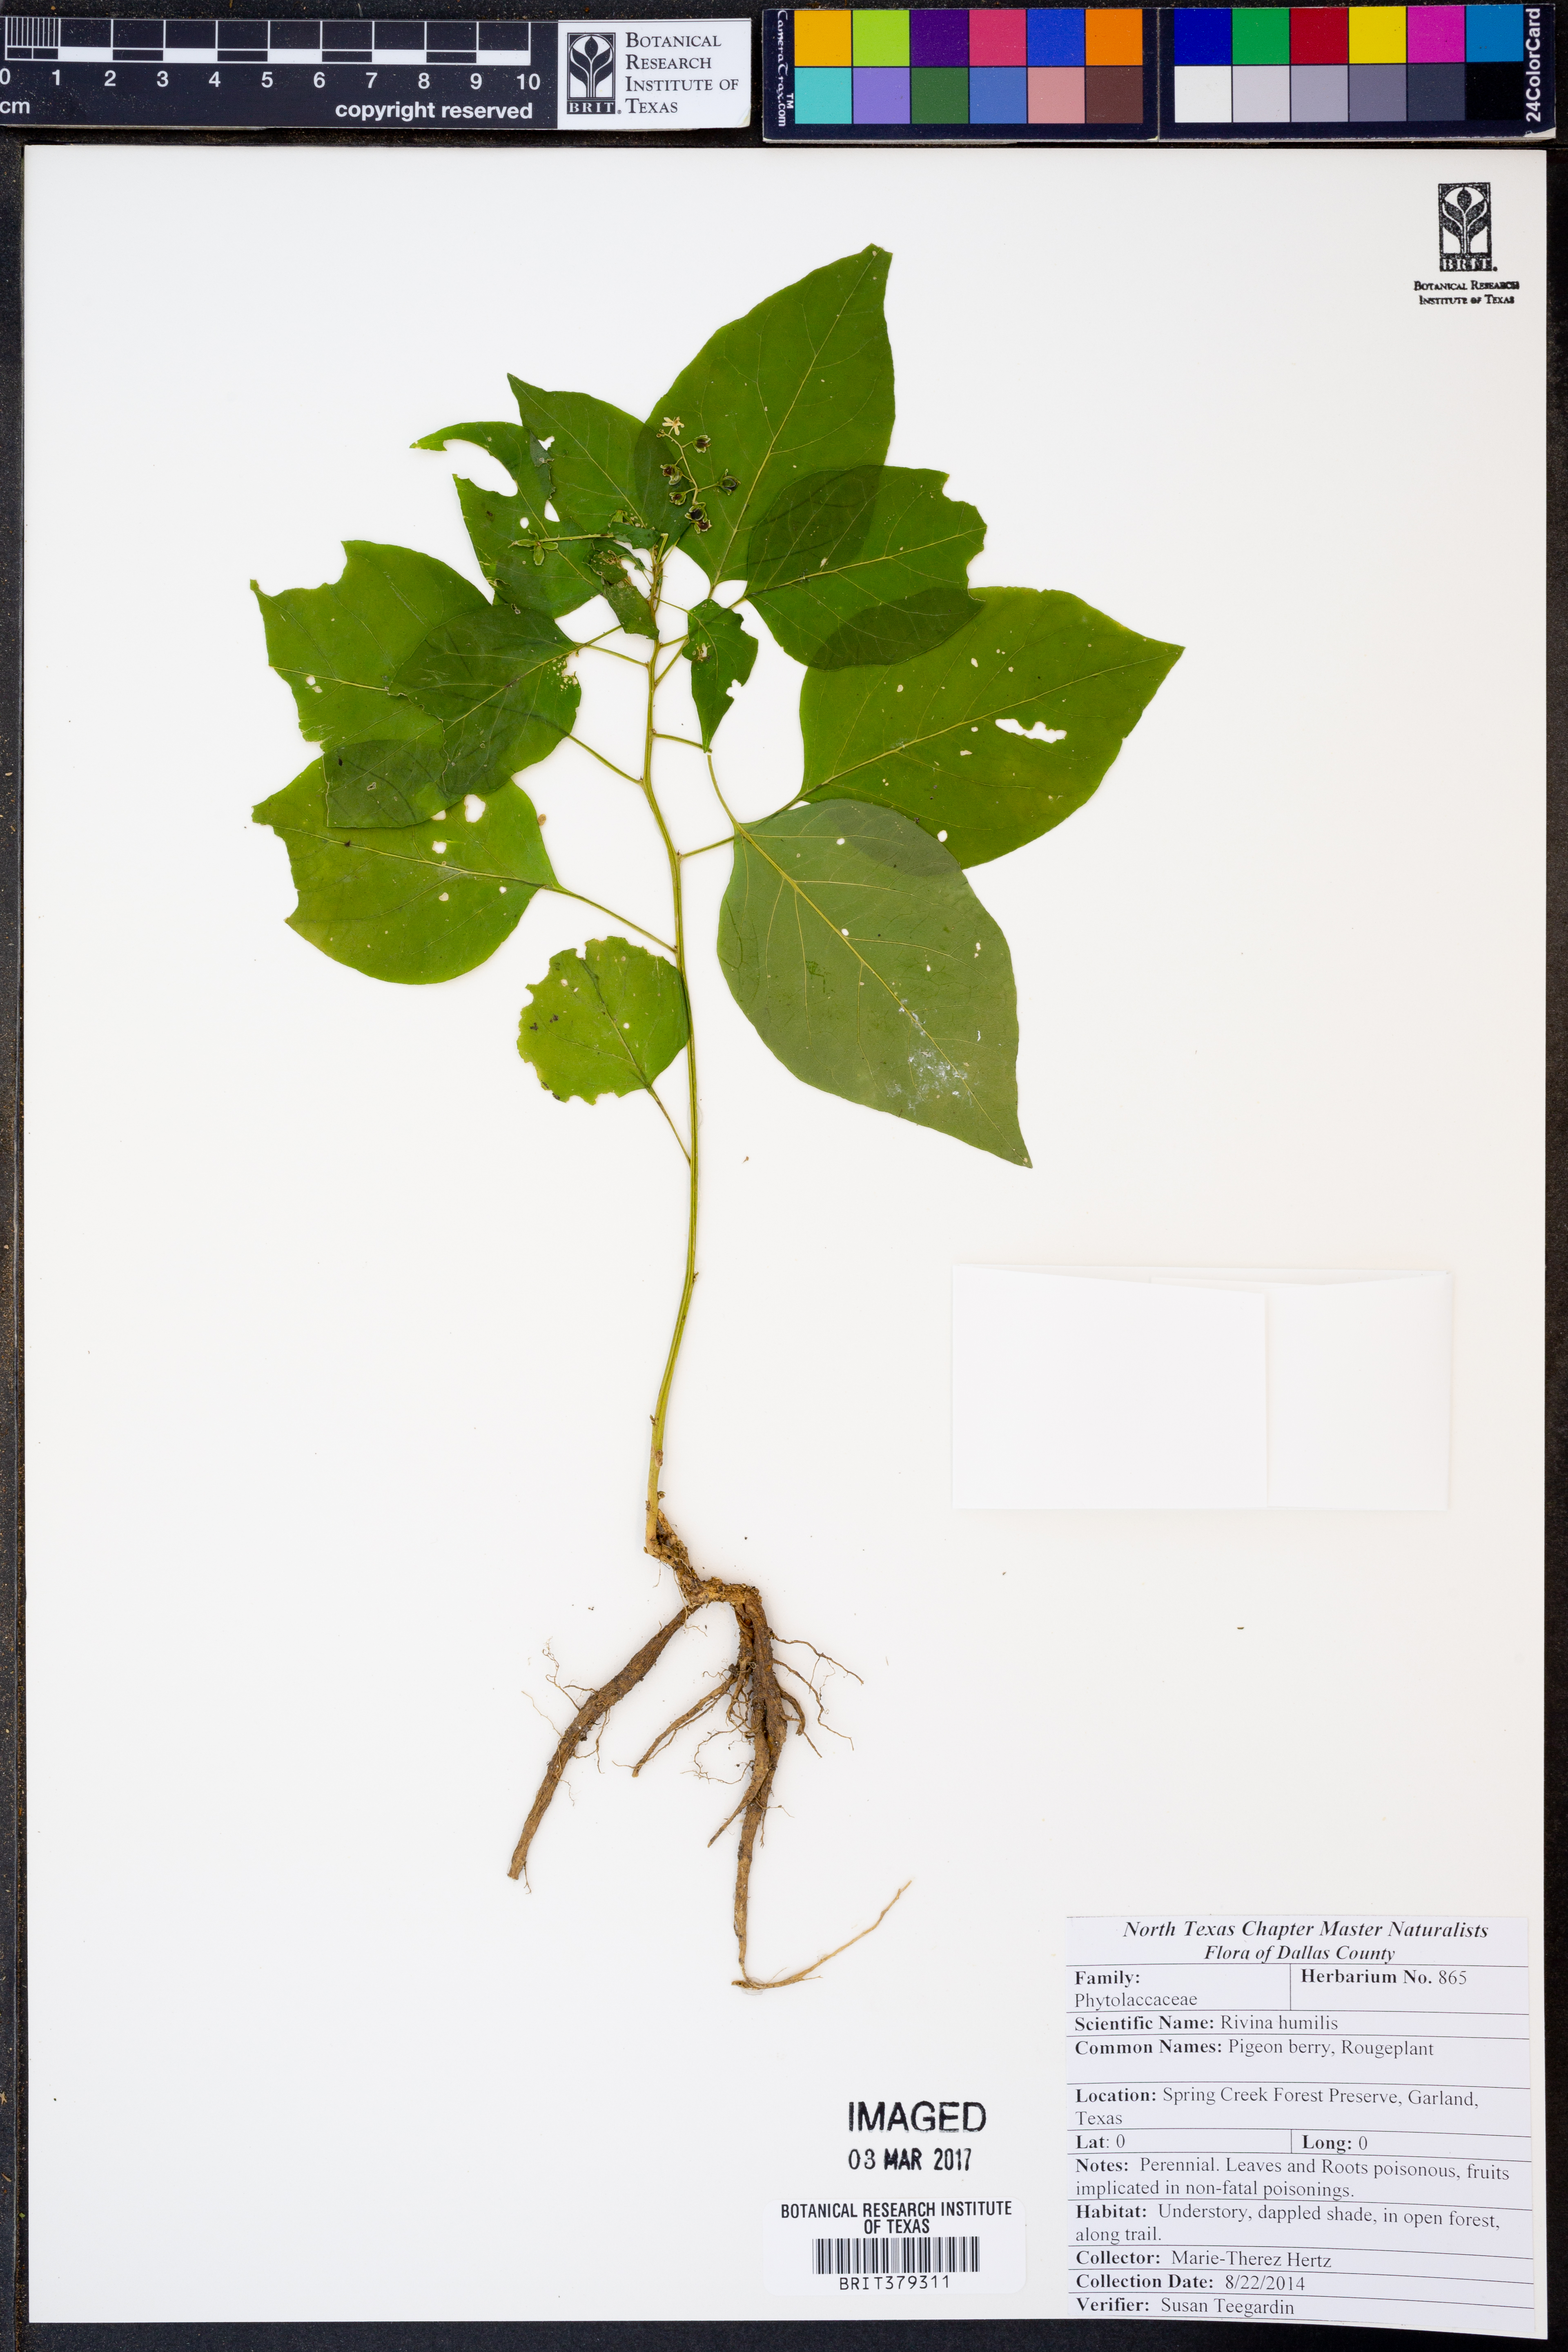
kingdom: Plantae
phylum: Tracheophyta
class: Magnoliopsida
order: Caryophyllales
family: Phytolaccaceae
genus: Rivina
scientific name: Rivina humilis
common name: Rougeplant
